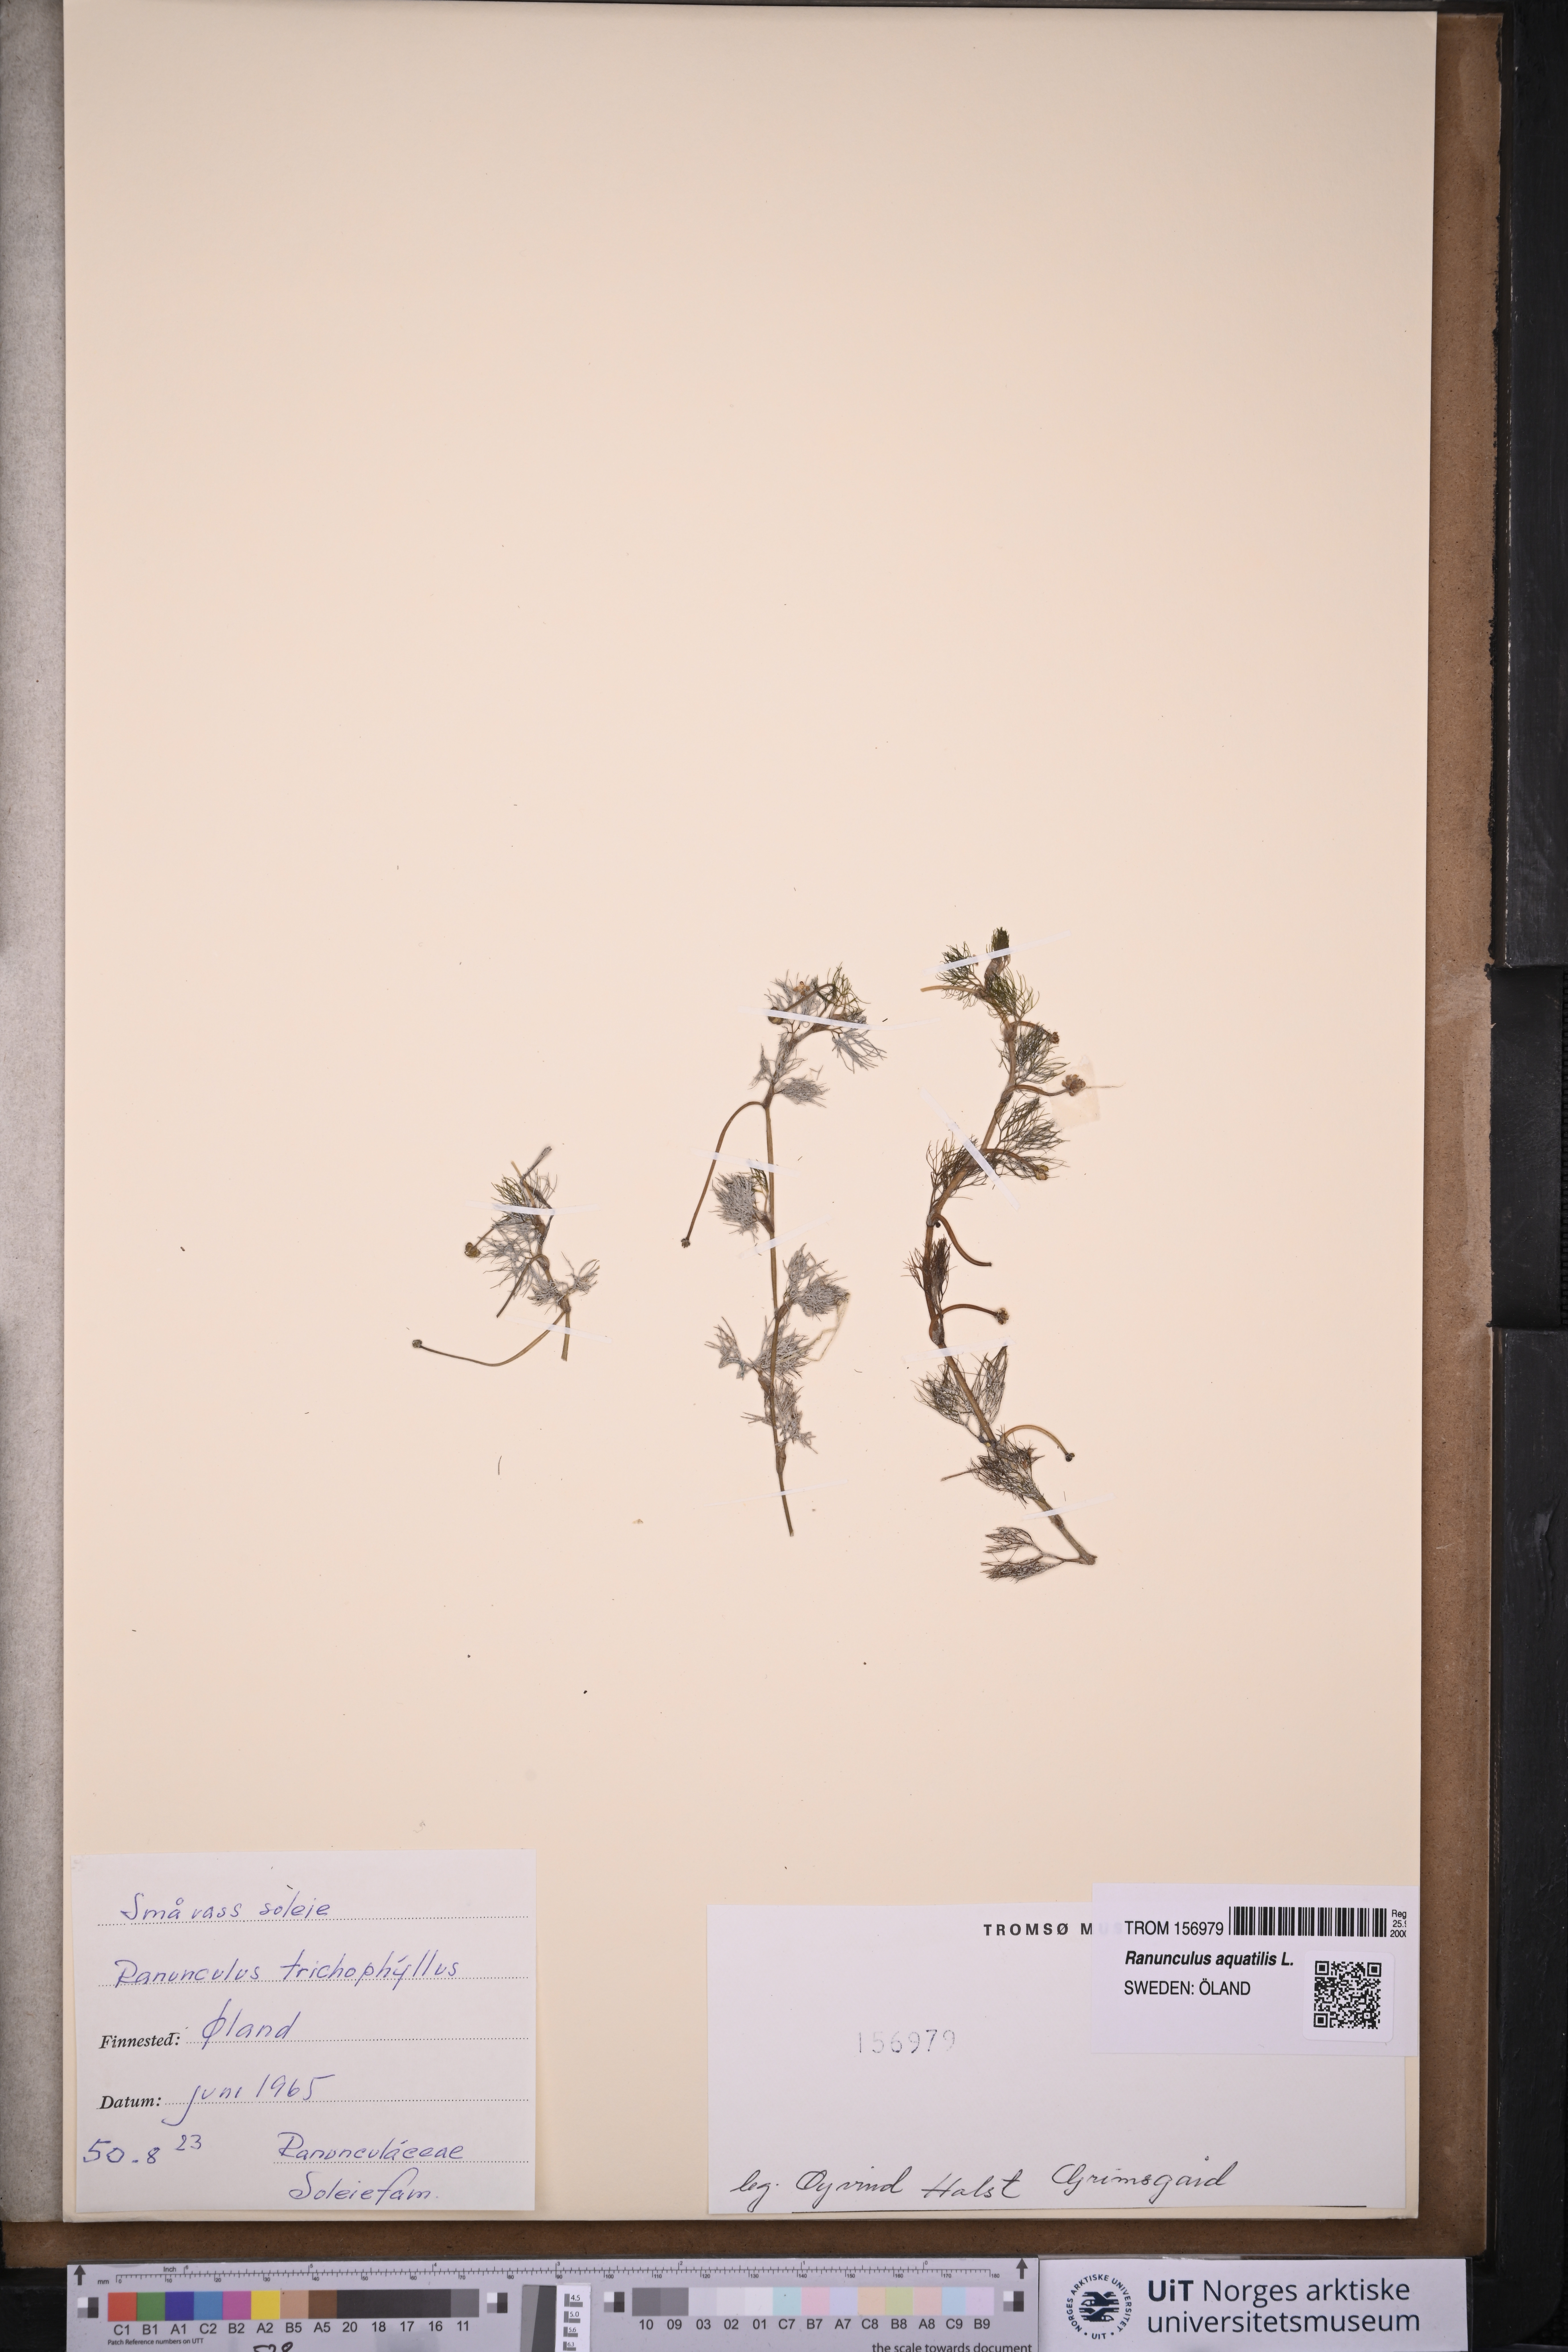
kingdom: Plantae
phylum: Tracheophyta
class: Magnoliopsida
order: Ranunculales
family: Ranunculaceae
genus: Ranunculus
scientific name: Ranunculus trichophyllus
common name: Thread-leaved water-crowfoot
